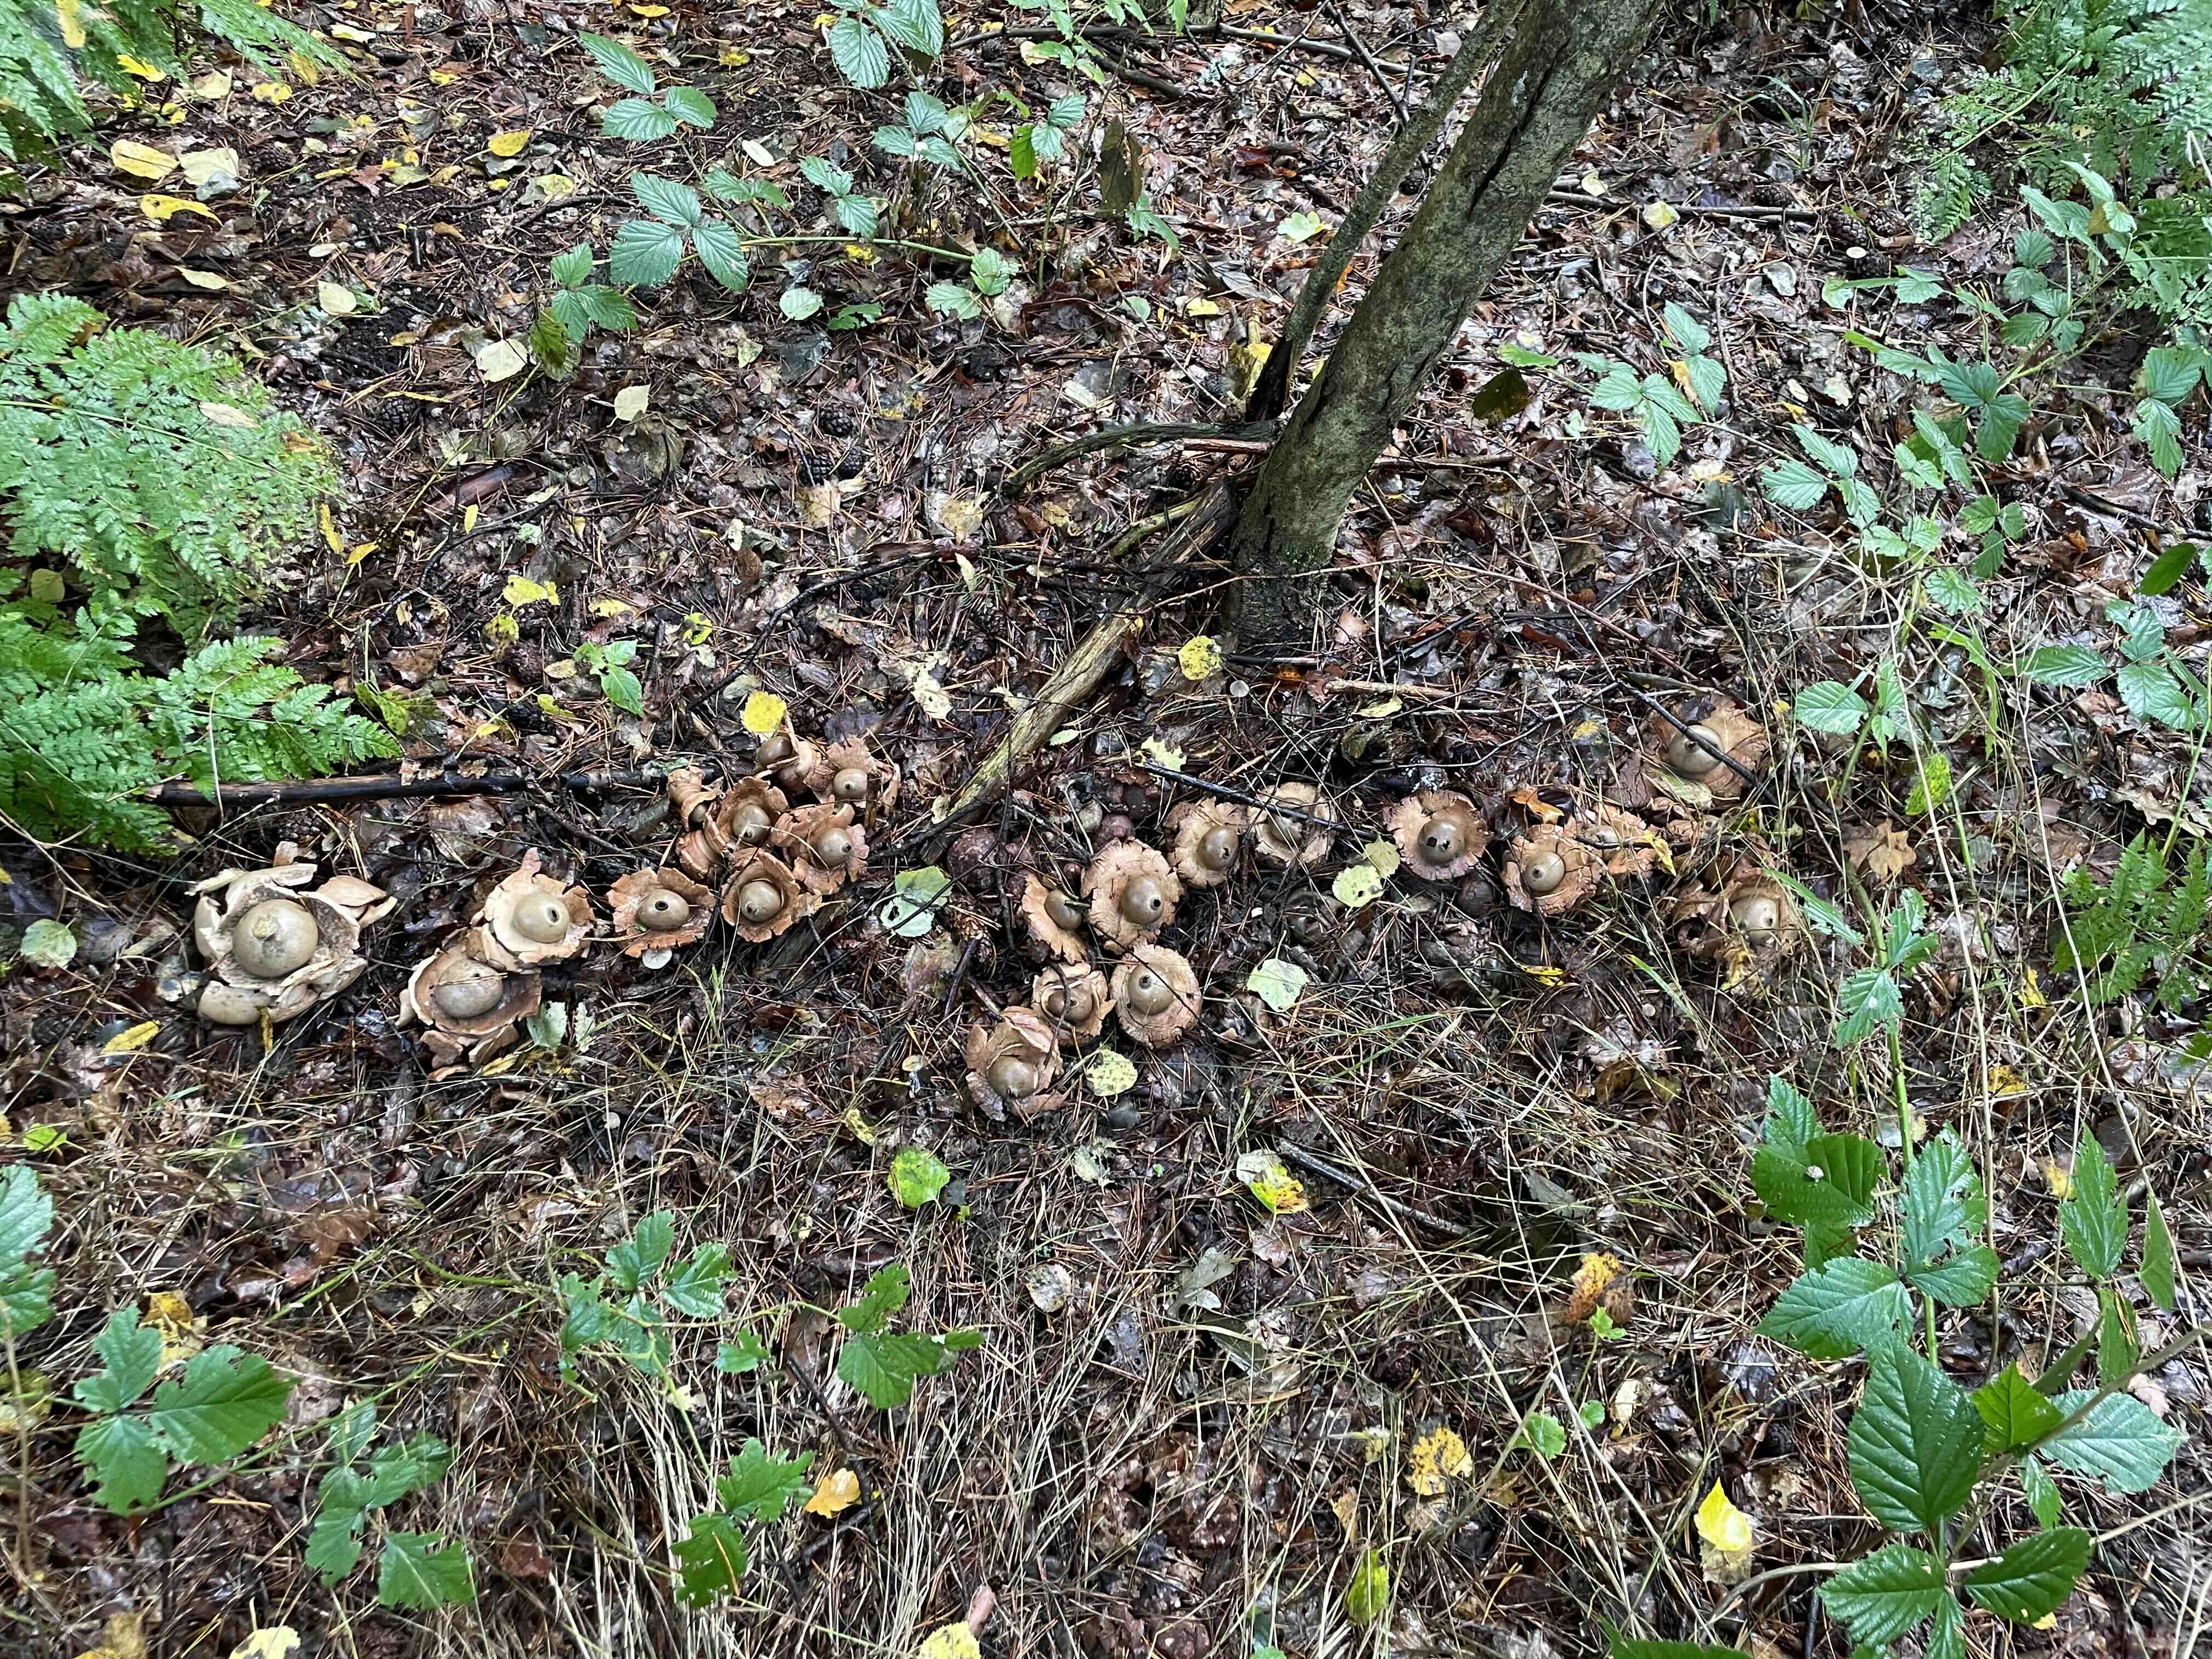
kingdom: Fungi
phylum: Basidiomycota
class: Agaricomycetes
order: Geastrales
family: Geastraceae
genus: Geastrum
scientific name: Geastrum michelianum
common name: kødet stjernebold
